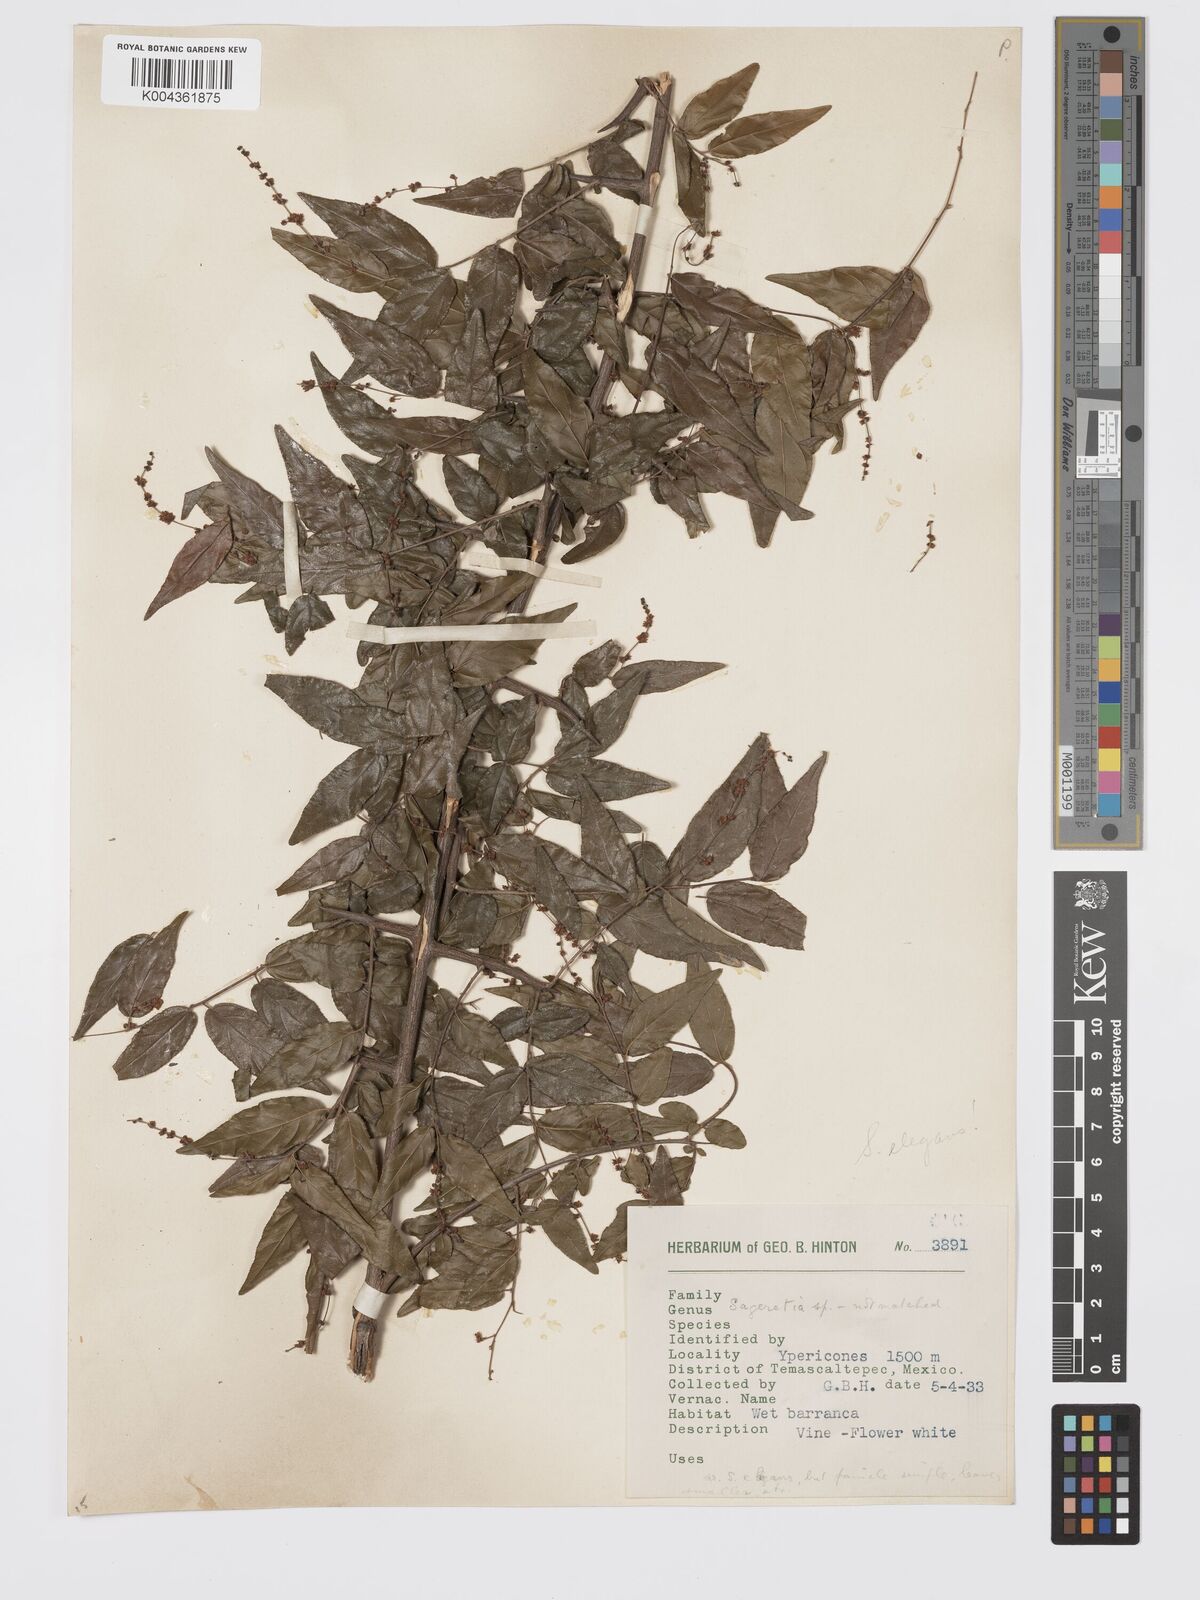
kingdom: Plantae
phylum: Tracheophyta
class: Magnoliopsida
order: Rosales
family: Rhamnaceae
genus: Sageretia
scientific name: Sageretia
